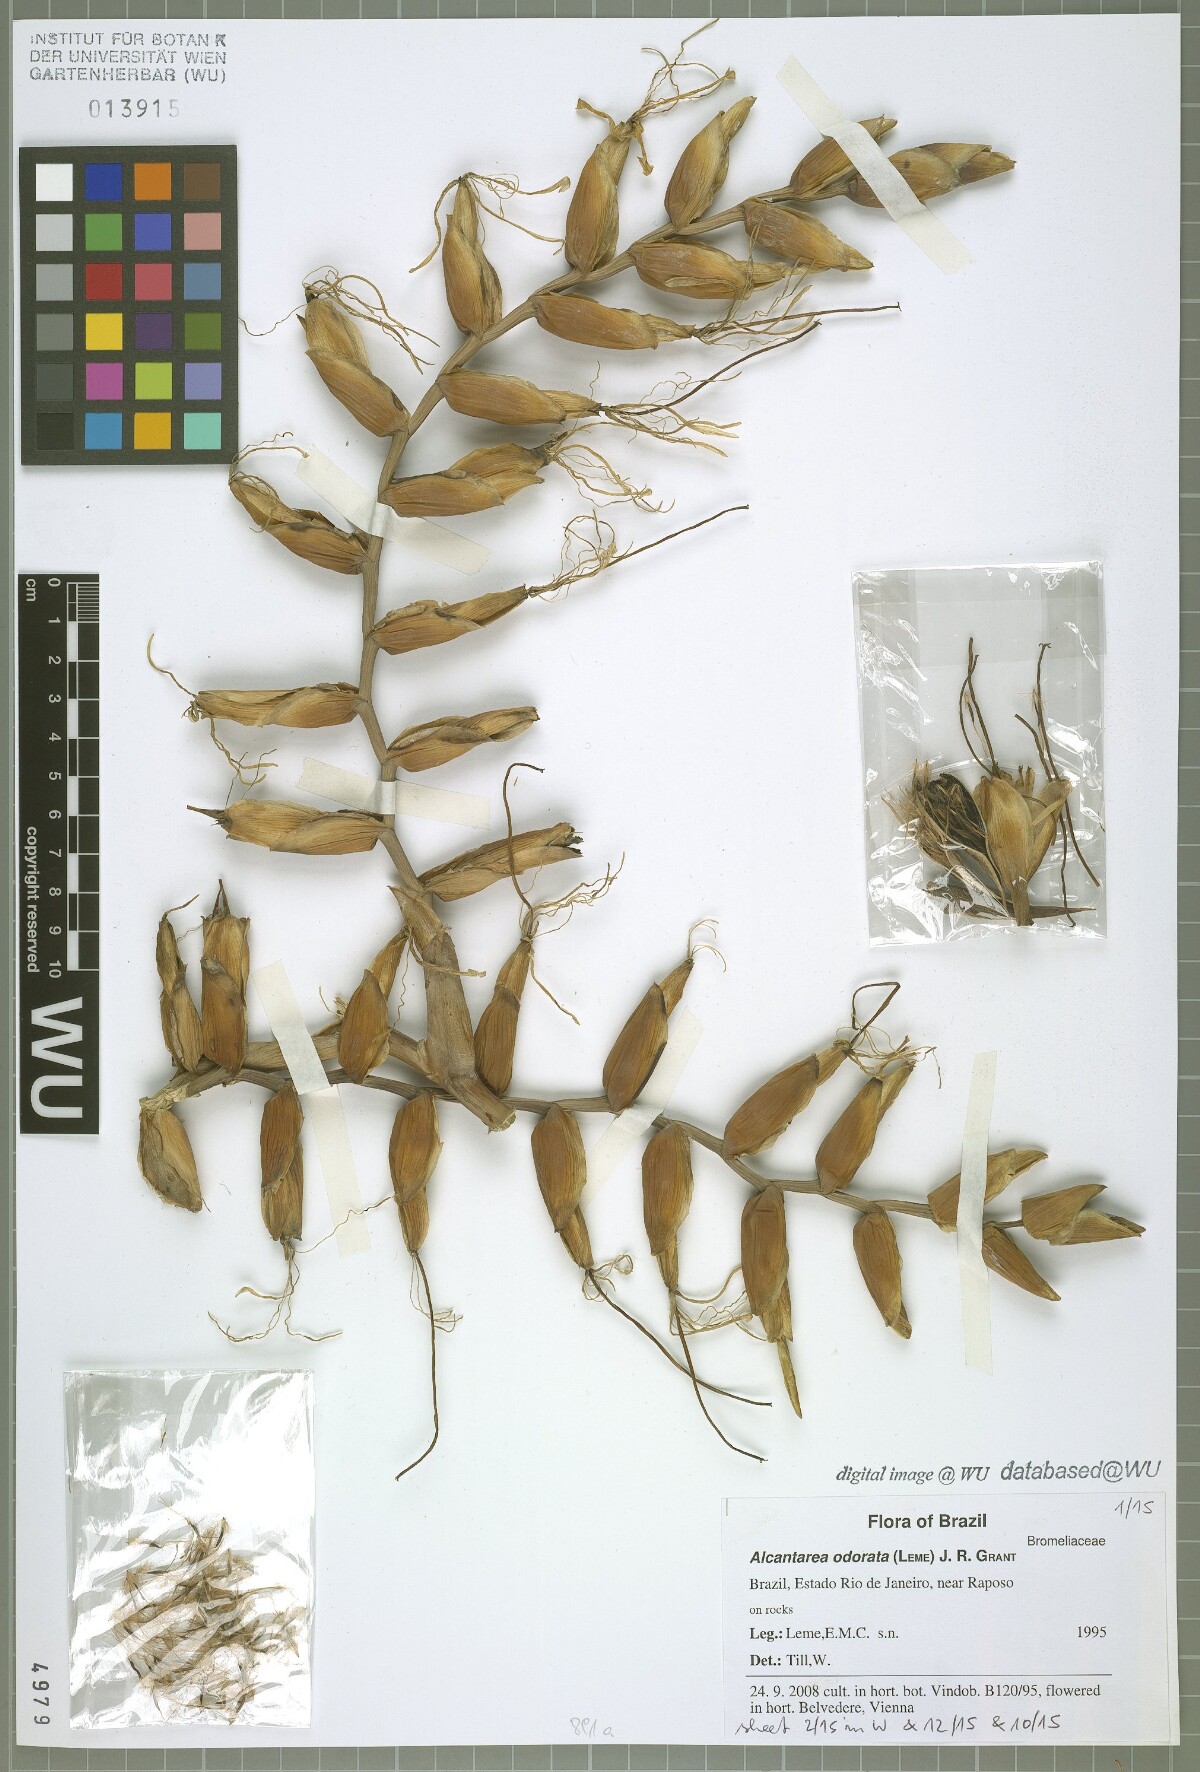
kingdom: Plantae
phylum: Tracheophyta
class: Liliopsida
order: Poales
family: Bromeliaceae
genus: Alcantarea
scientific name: Alcantarea odorata
